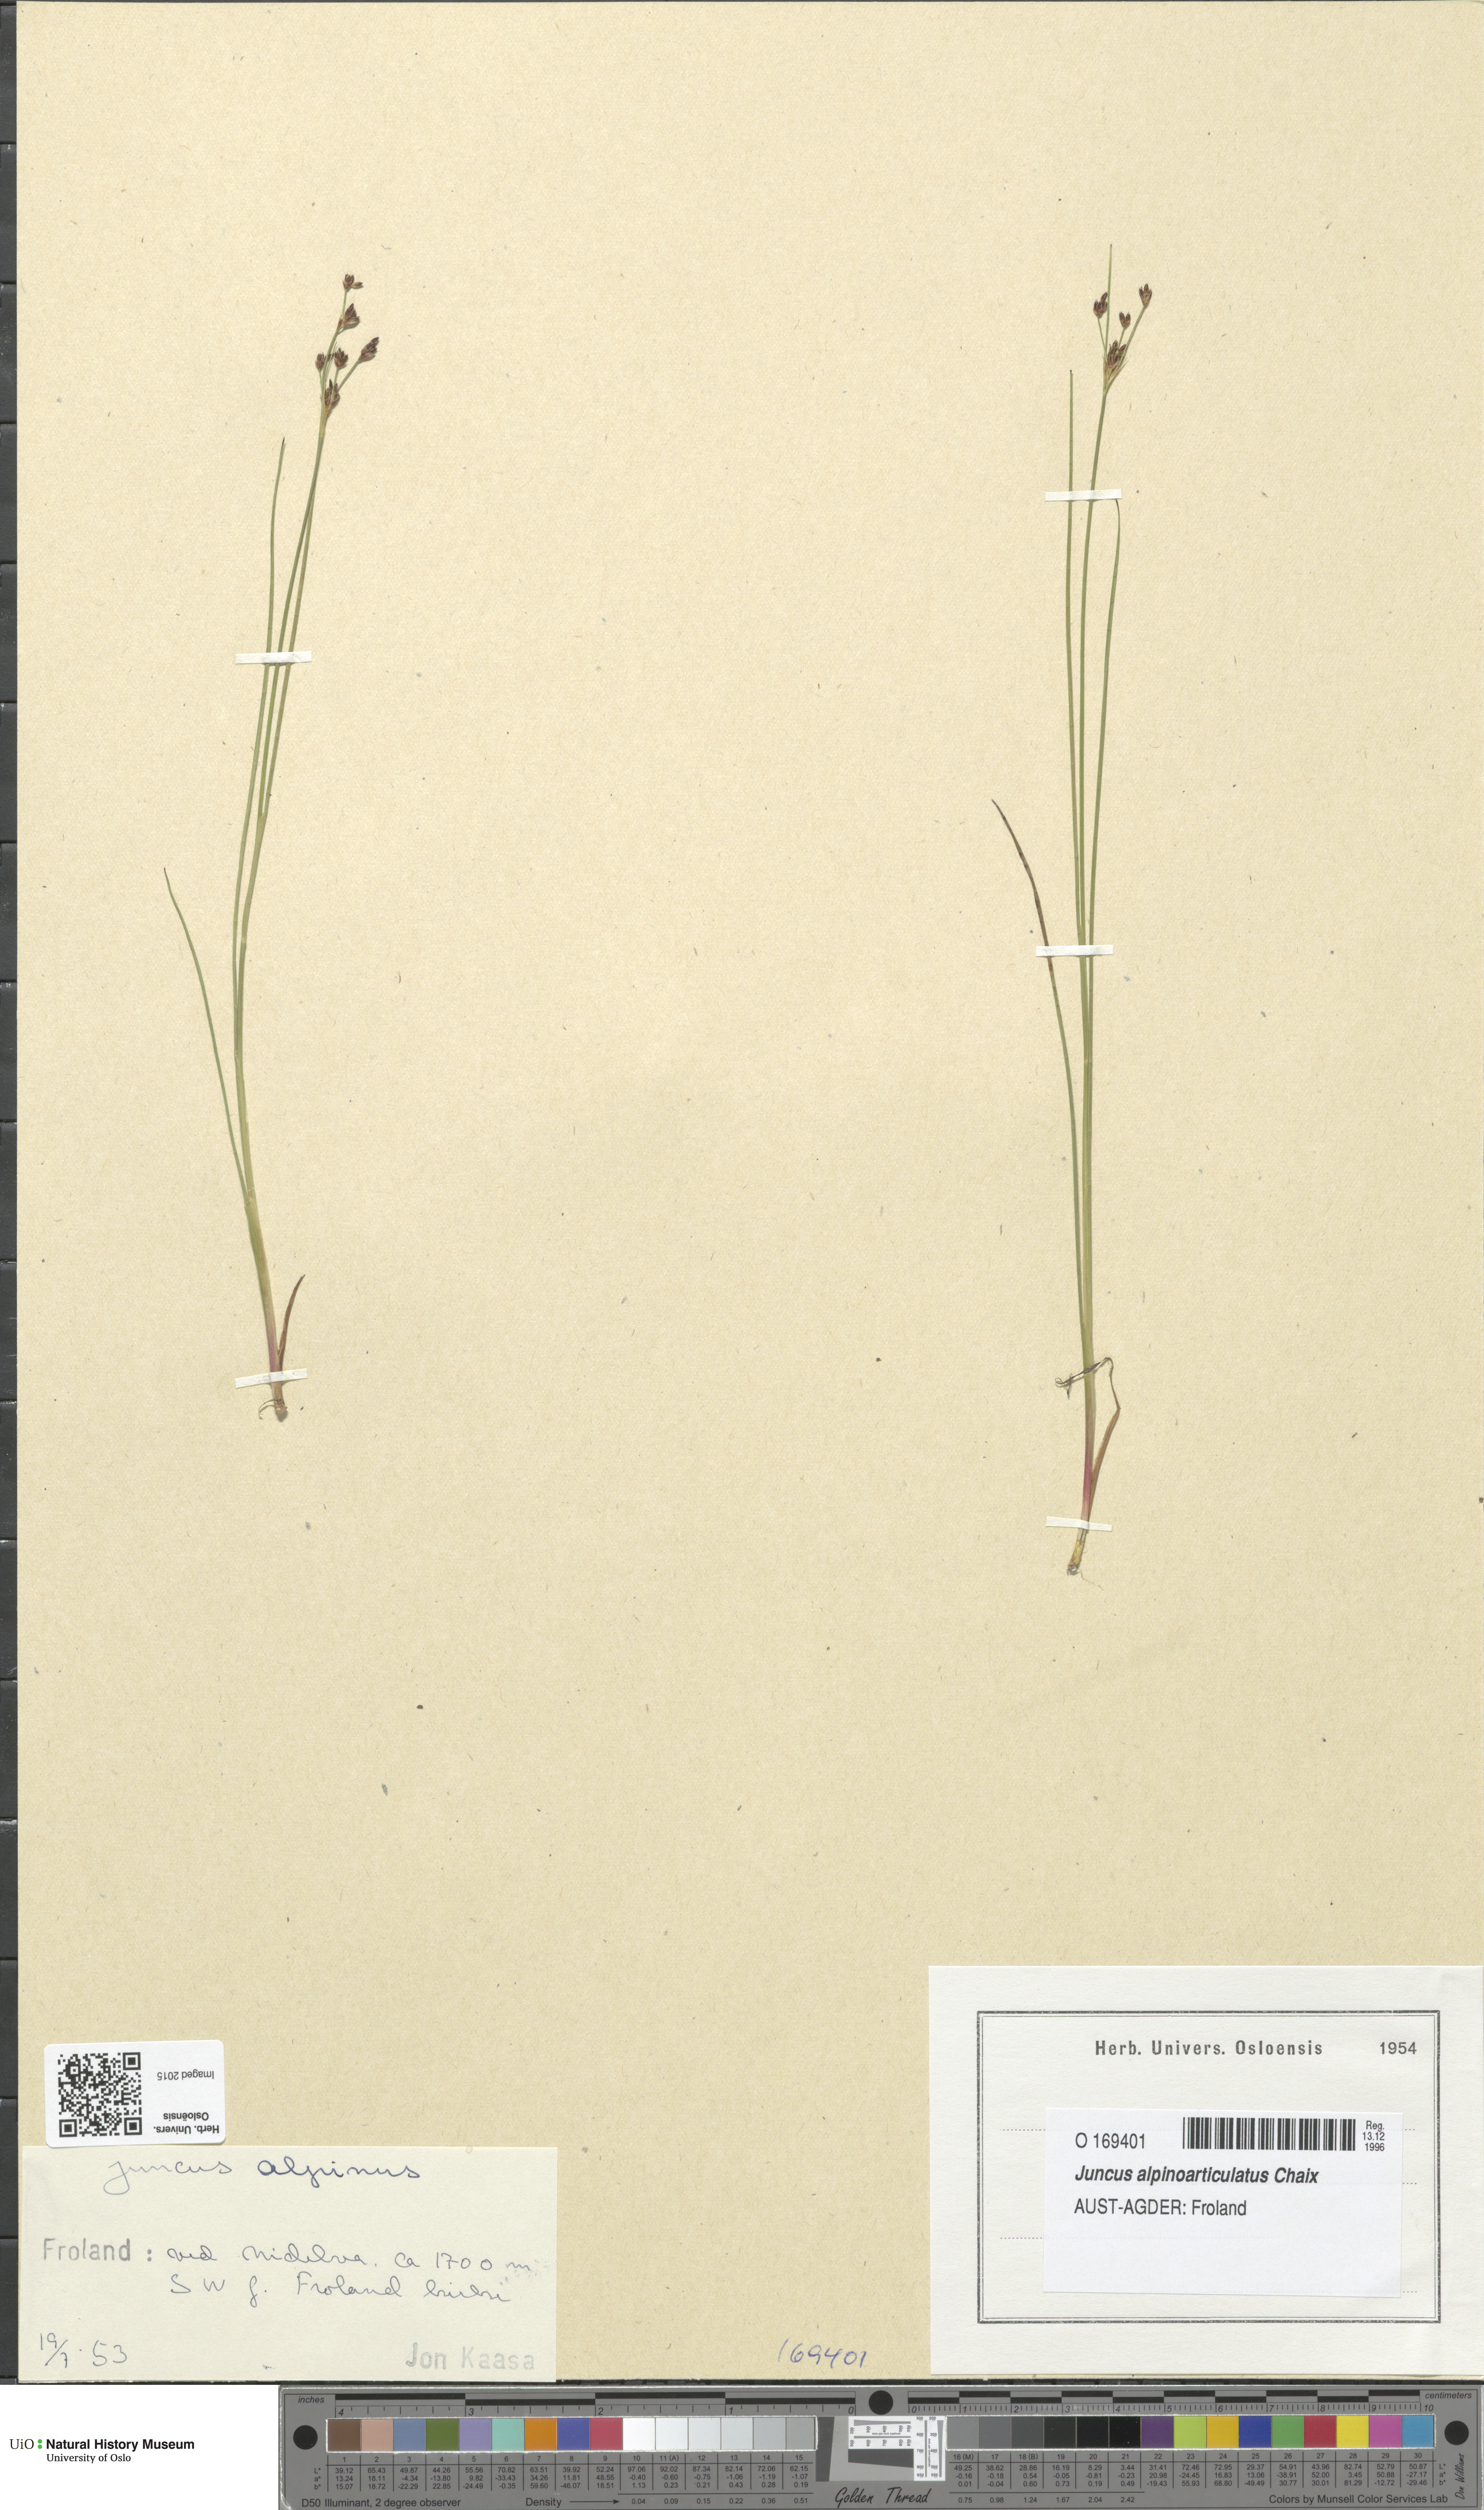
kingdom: Plantae
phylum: Tracheophyta
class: Liliopsida
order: Poales
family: Juncaceae
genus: Juncus
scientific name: Juncus alpinoarticulatus
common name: Alpine rush
